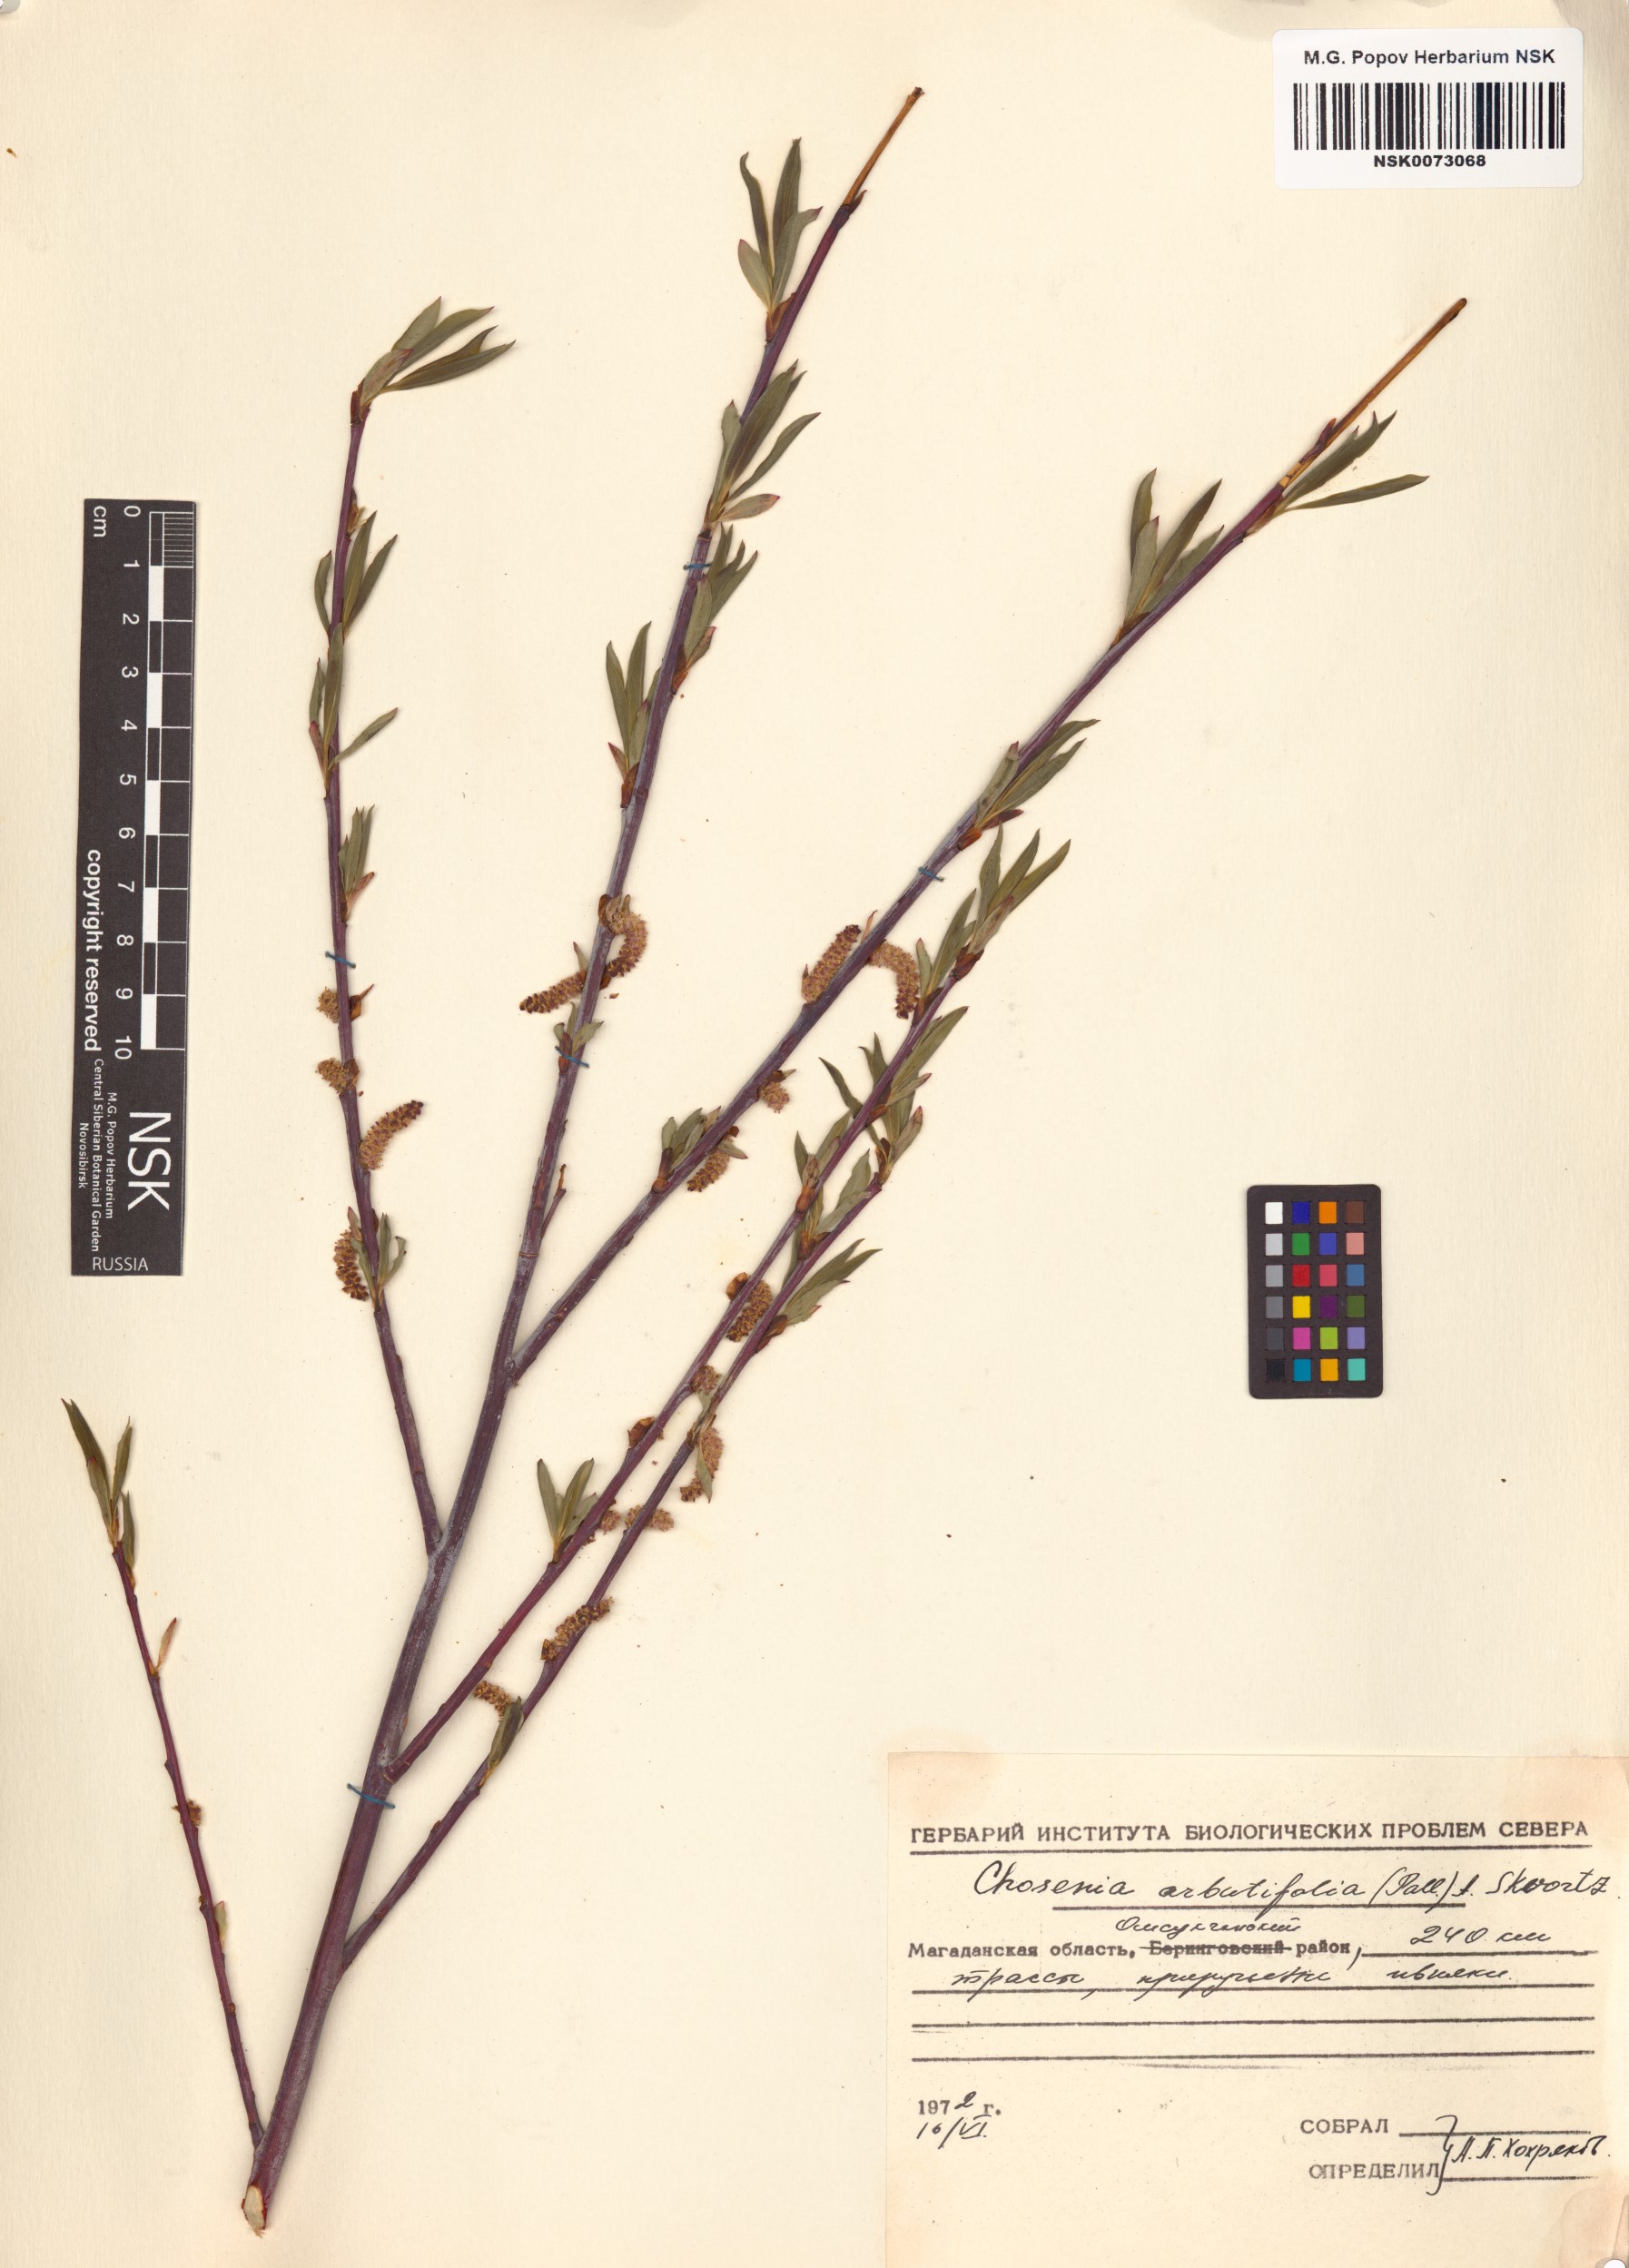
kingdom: Plantae
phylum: Tracheophyta
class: Magnoliopsida
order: Malpighiales
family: Salicaceae
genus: Chosenia
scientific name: Chosenia arbutifolia
